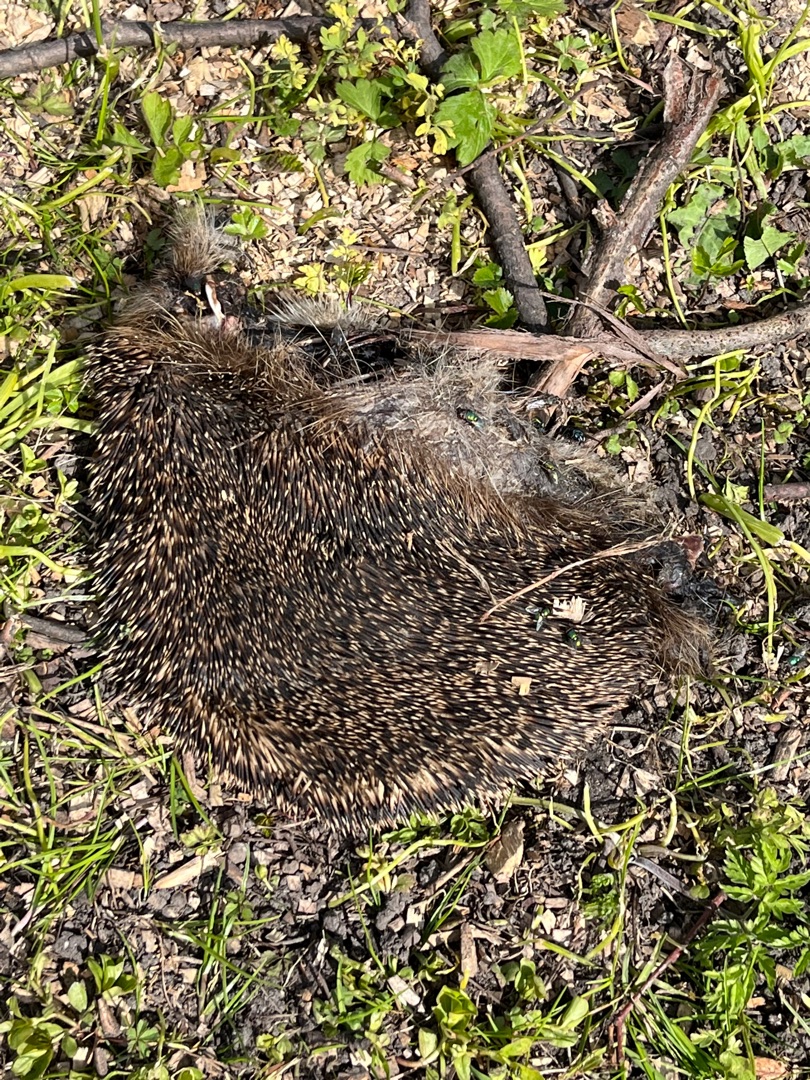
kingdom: Animalia
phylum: Chordata
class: Mammalia
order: Erinaceomorpha
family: Erinaceidae
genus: Erinaceus
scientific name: Erinaceus europaeus
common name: Pindsvin
